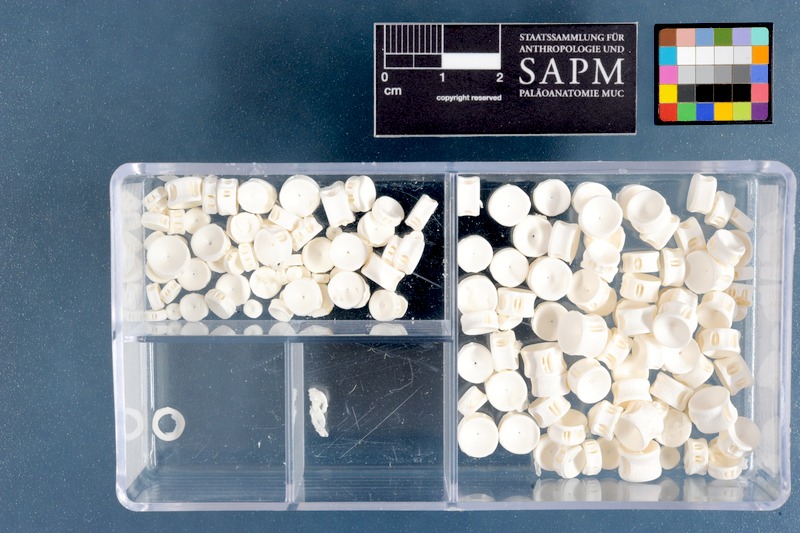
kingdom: Animalia
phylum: Chordata
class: Elasmobranchii
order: Carcharhiniformes
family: Carcharhinidae
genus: Carcharhinus
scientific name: Carcharhinus brachyurus
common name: Bronze whaler
